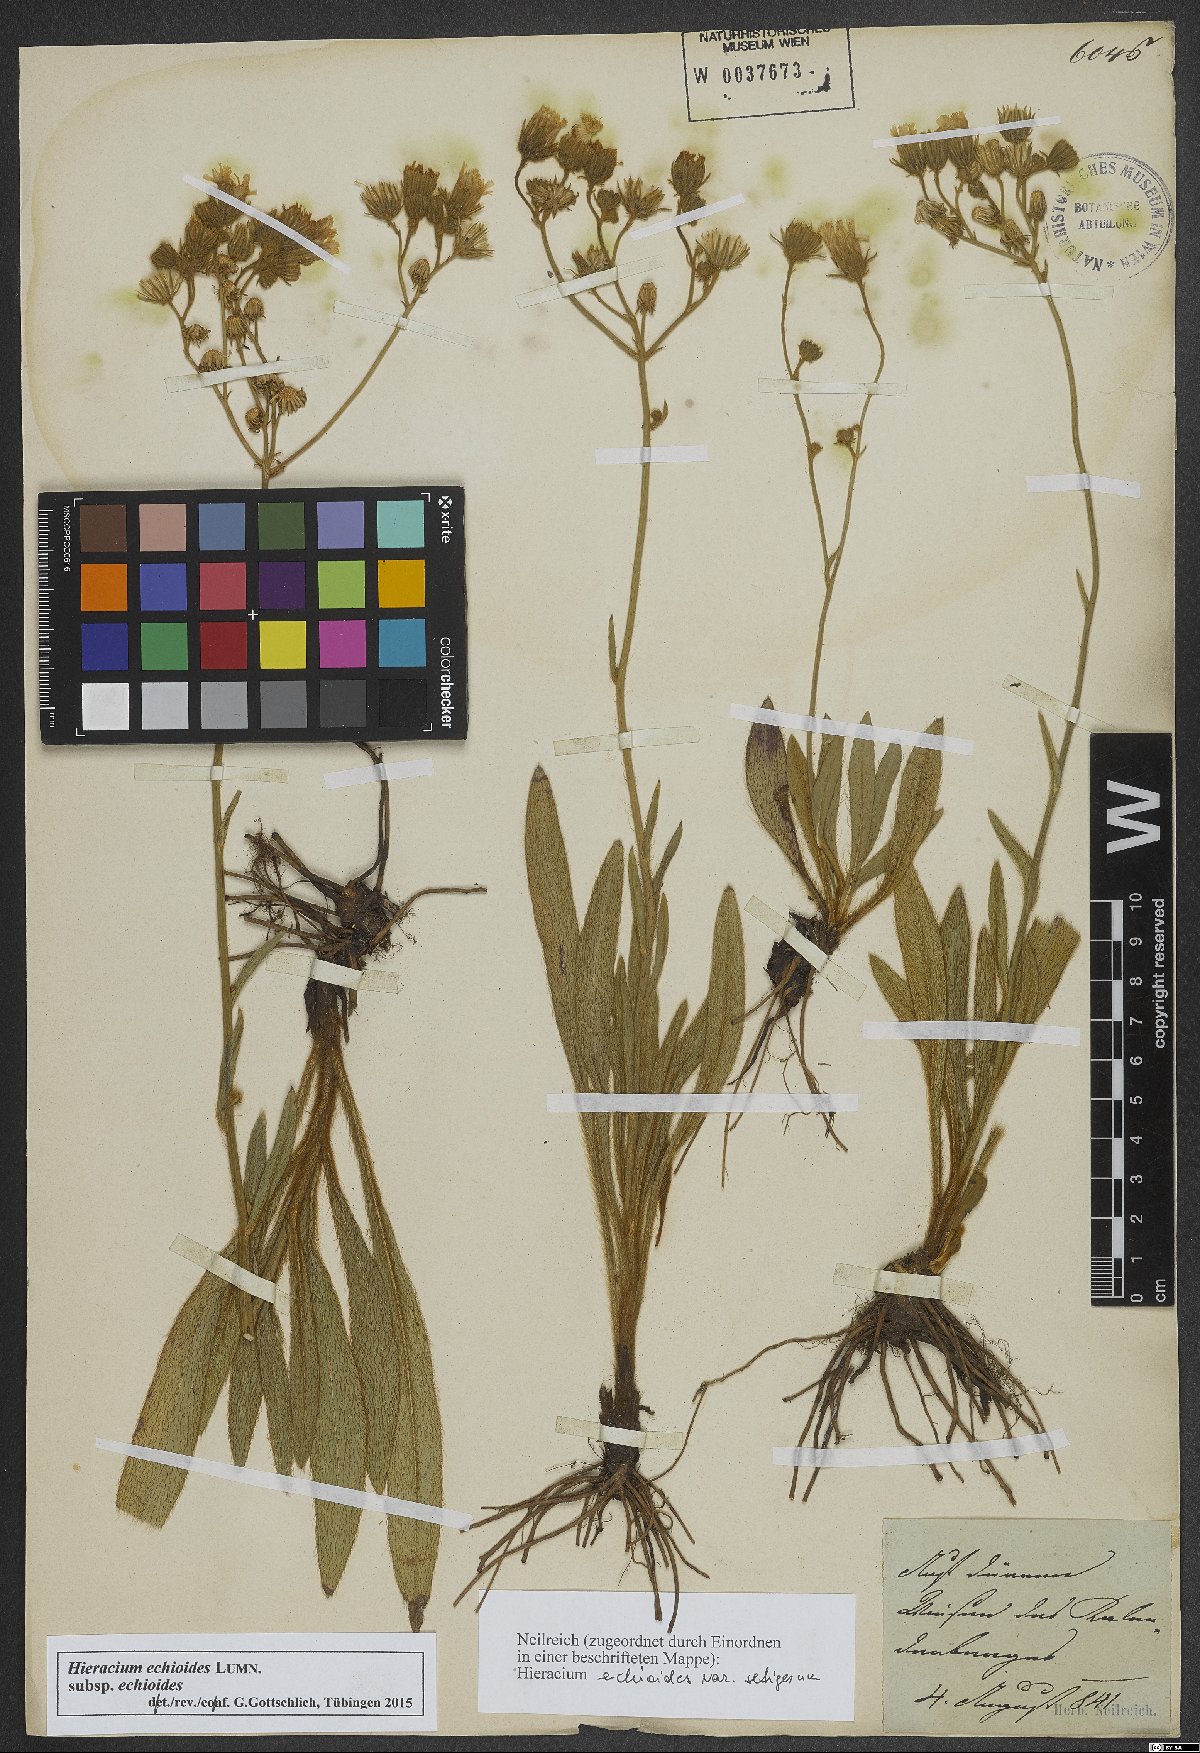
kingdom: Plantae
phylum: Tracheophyta
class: Magnoliopsida
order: Asterales
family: Asteraceae
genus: Pilosella
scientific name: Pilosella echioides
